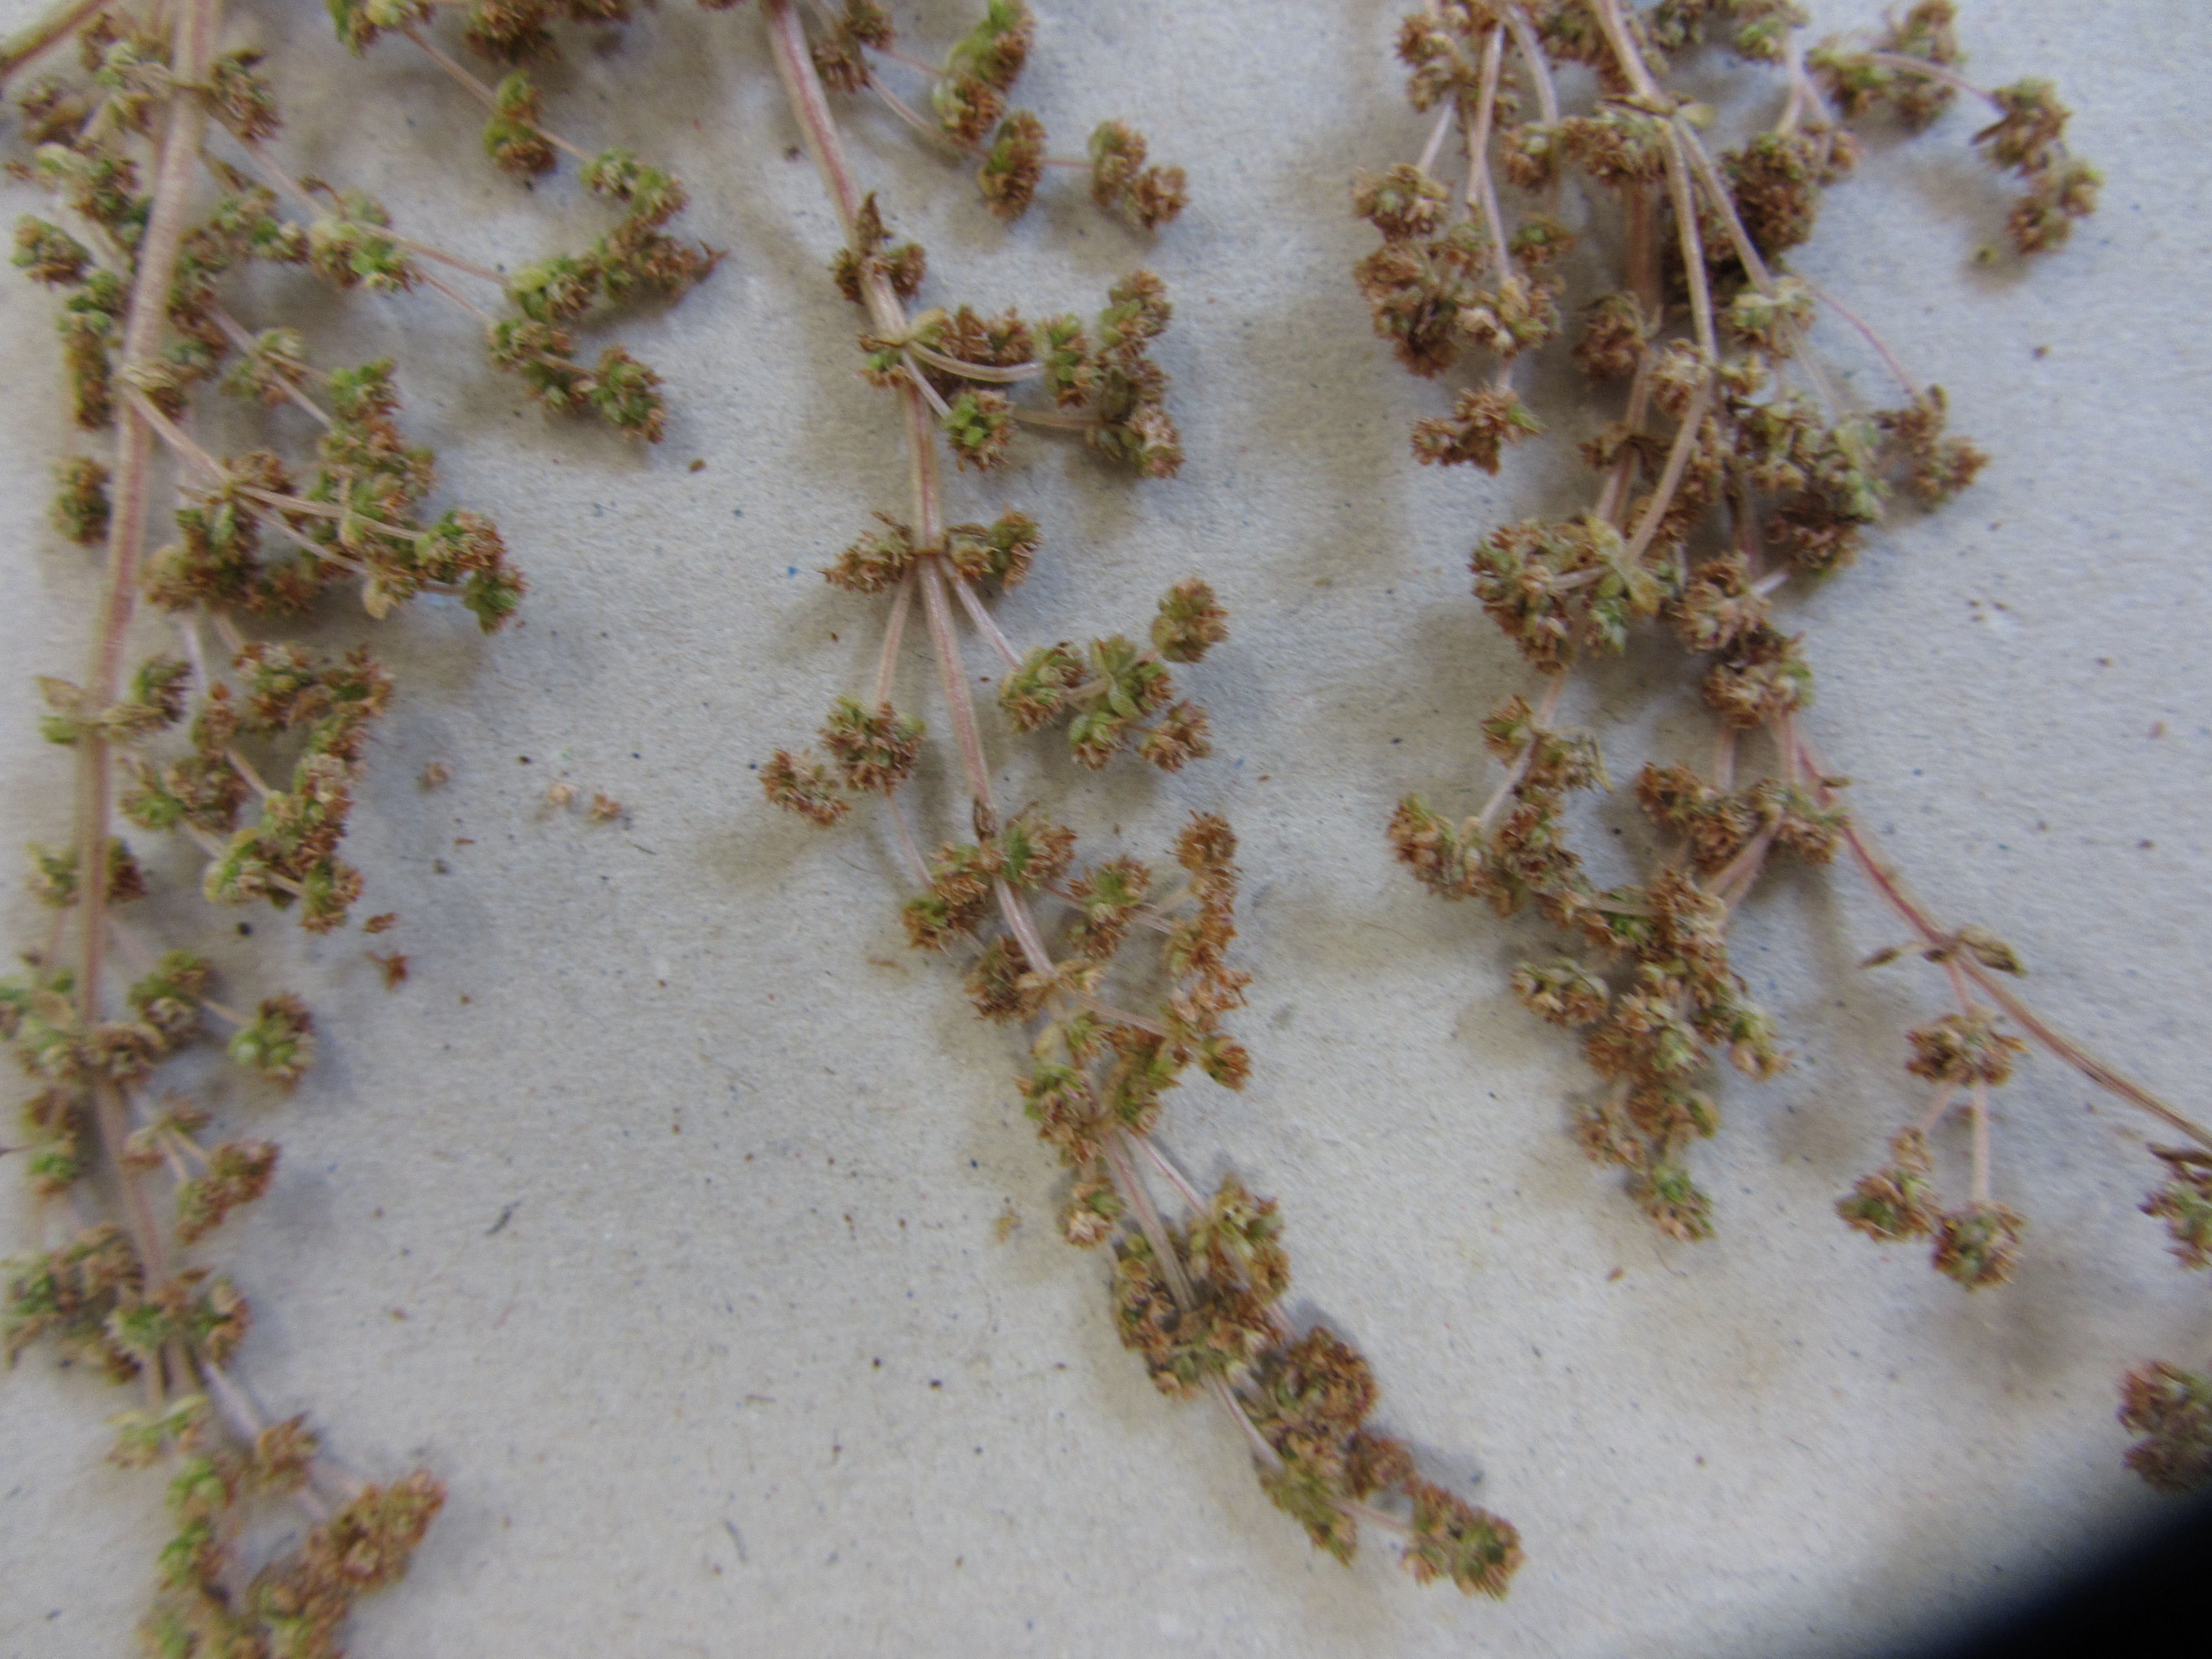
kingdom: Plantae
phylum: Tracheophyta
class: Magnoliopsida
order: Saxifragales
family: Crassulaceae
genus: Crassula
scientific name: Crassula colligata
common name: Pygmyweed
